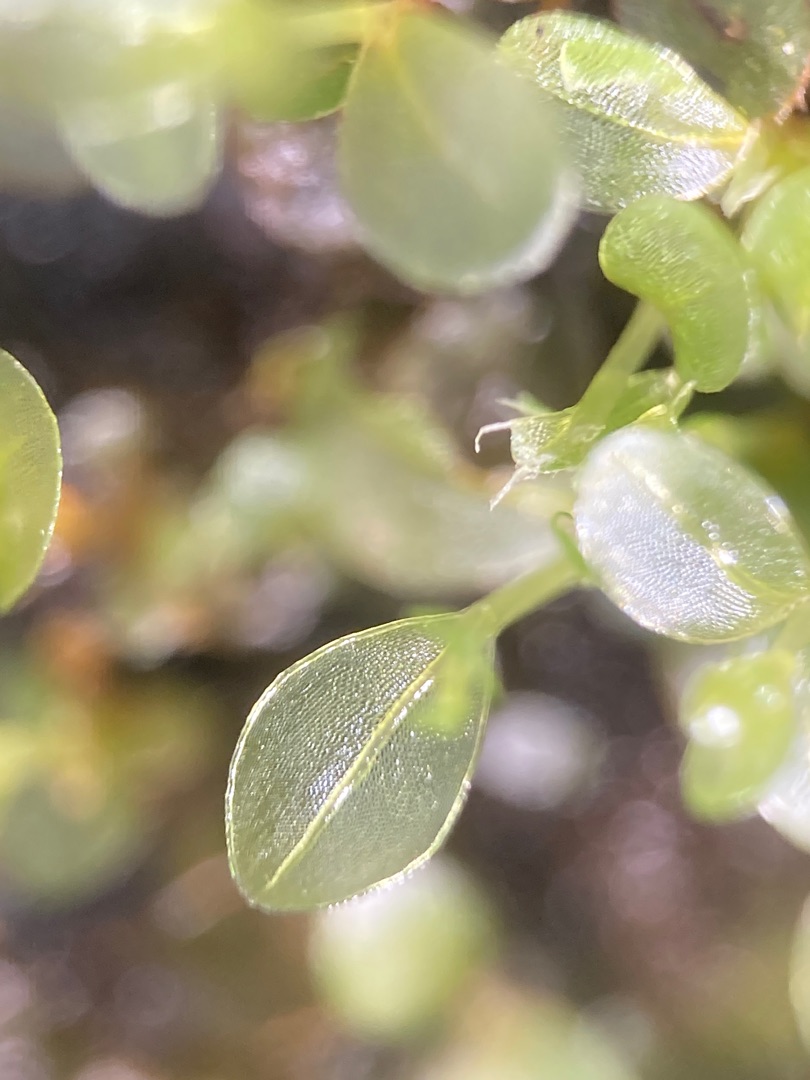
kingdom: Plantae
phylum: Bryophyta
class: Bryopsida
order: Bryales
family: Mniaceae
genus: Rhizomnium
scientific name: Rhizomnium punctatum
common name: Almindelig bredblad
